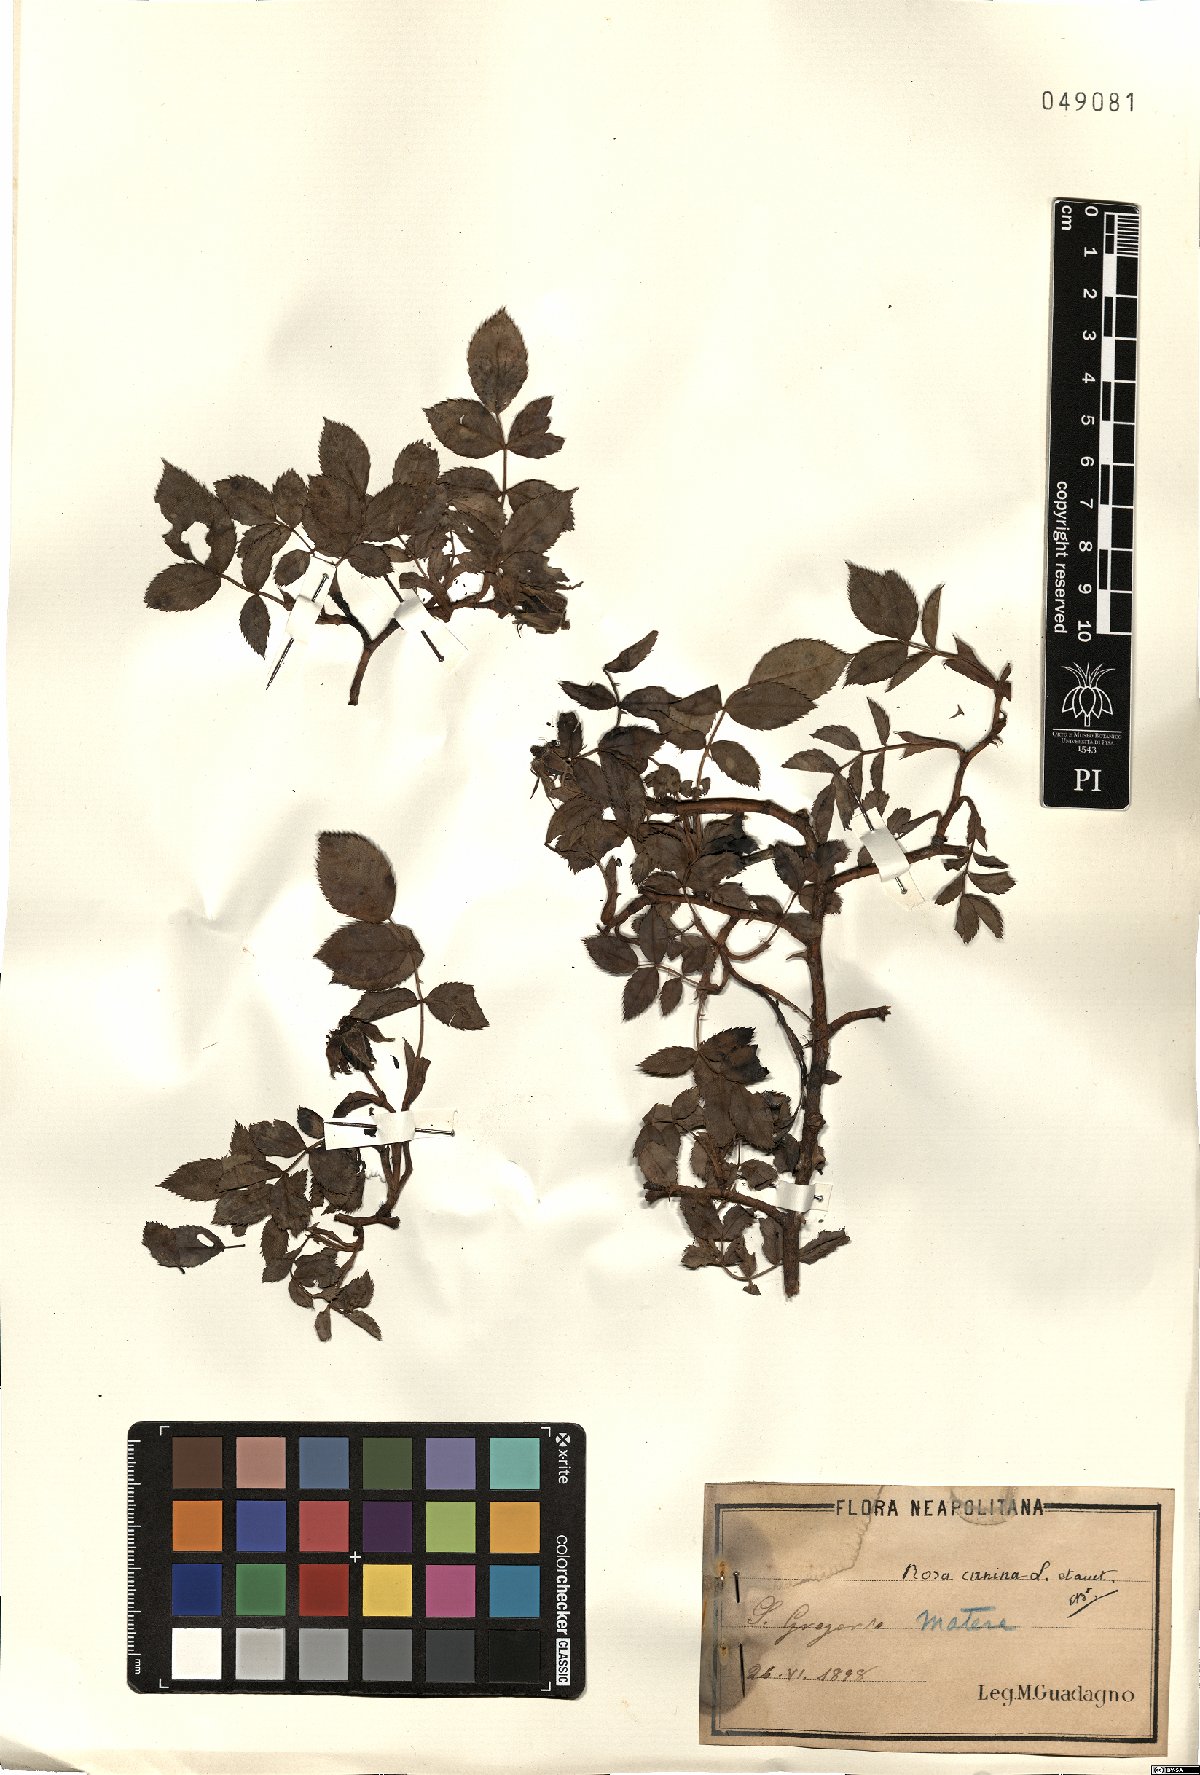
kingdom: Plantae
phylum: Tracheophyta
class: Magnoliopsida
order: Rosales
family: Rosaceae
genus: Rosa
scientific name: Rosa canina
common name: Dog rose
